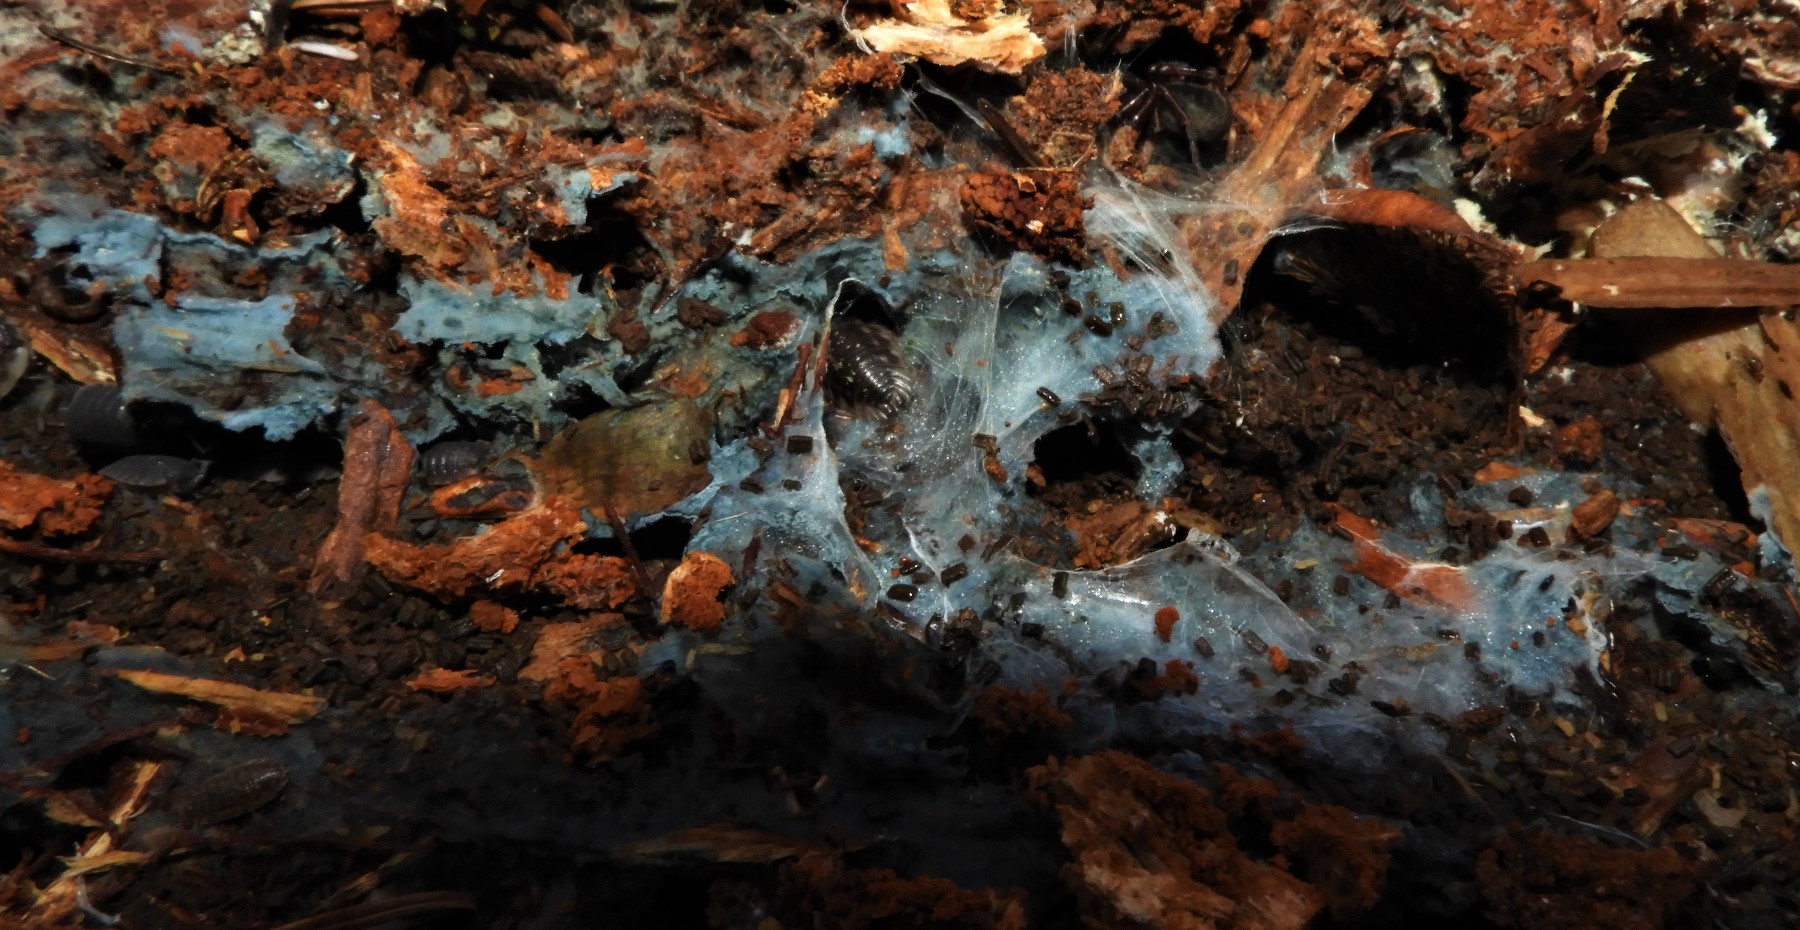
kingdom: Fungi
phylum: Basidiomycota
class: Agaricomycetes
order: Atheliales
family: Atheliaceae
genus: Byssocorticium
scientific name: Byssocorticium
